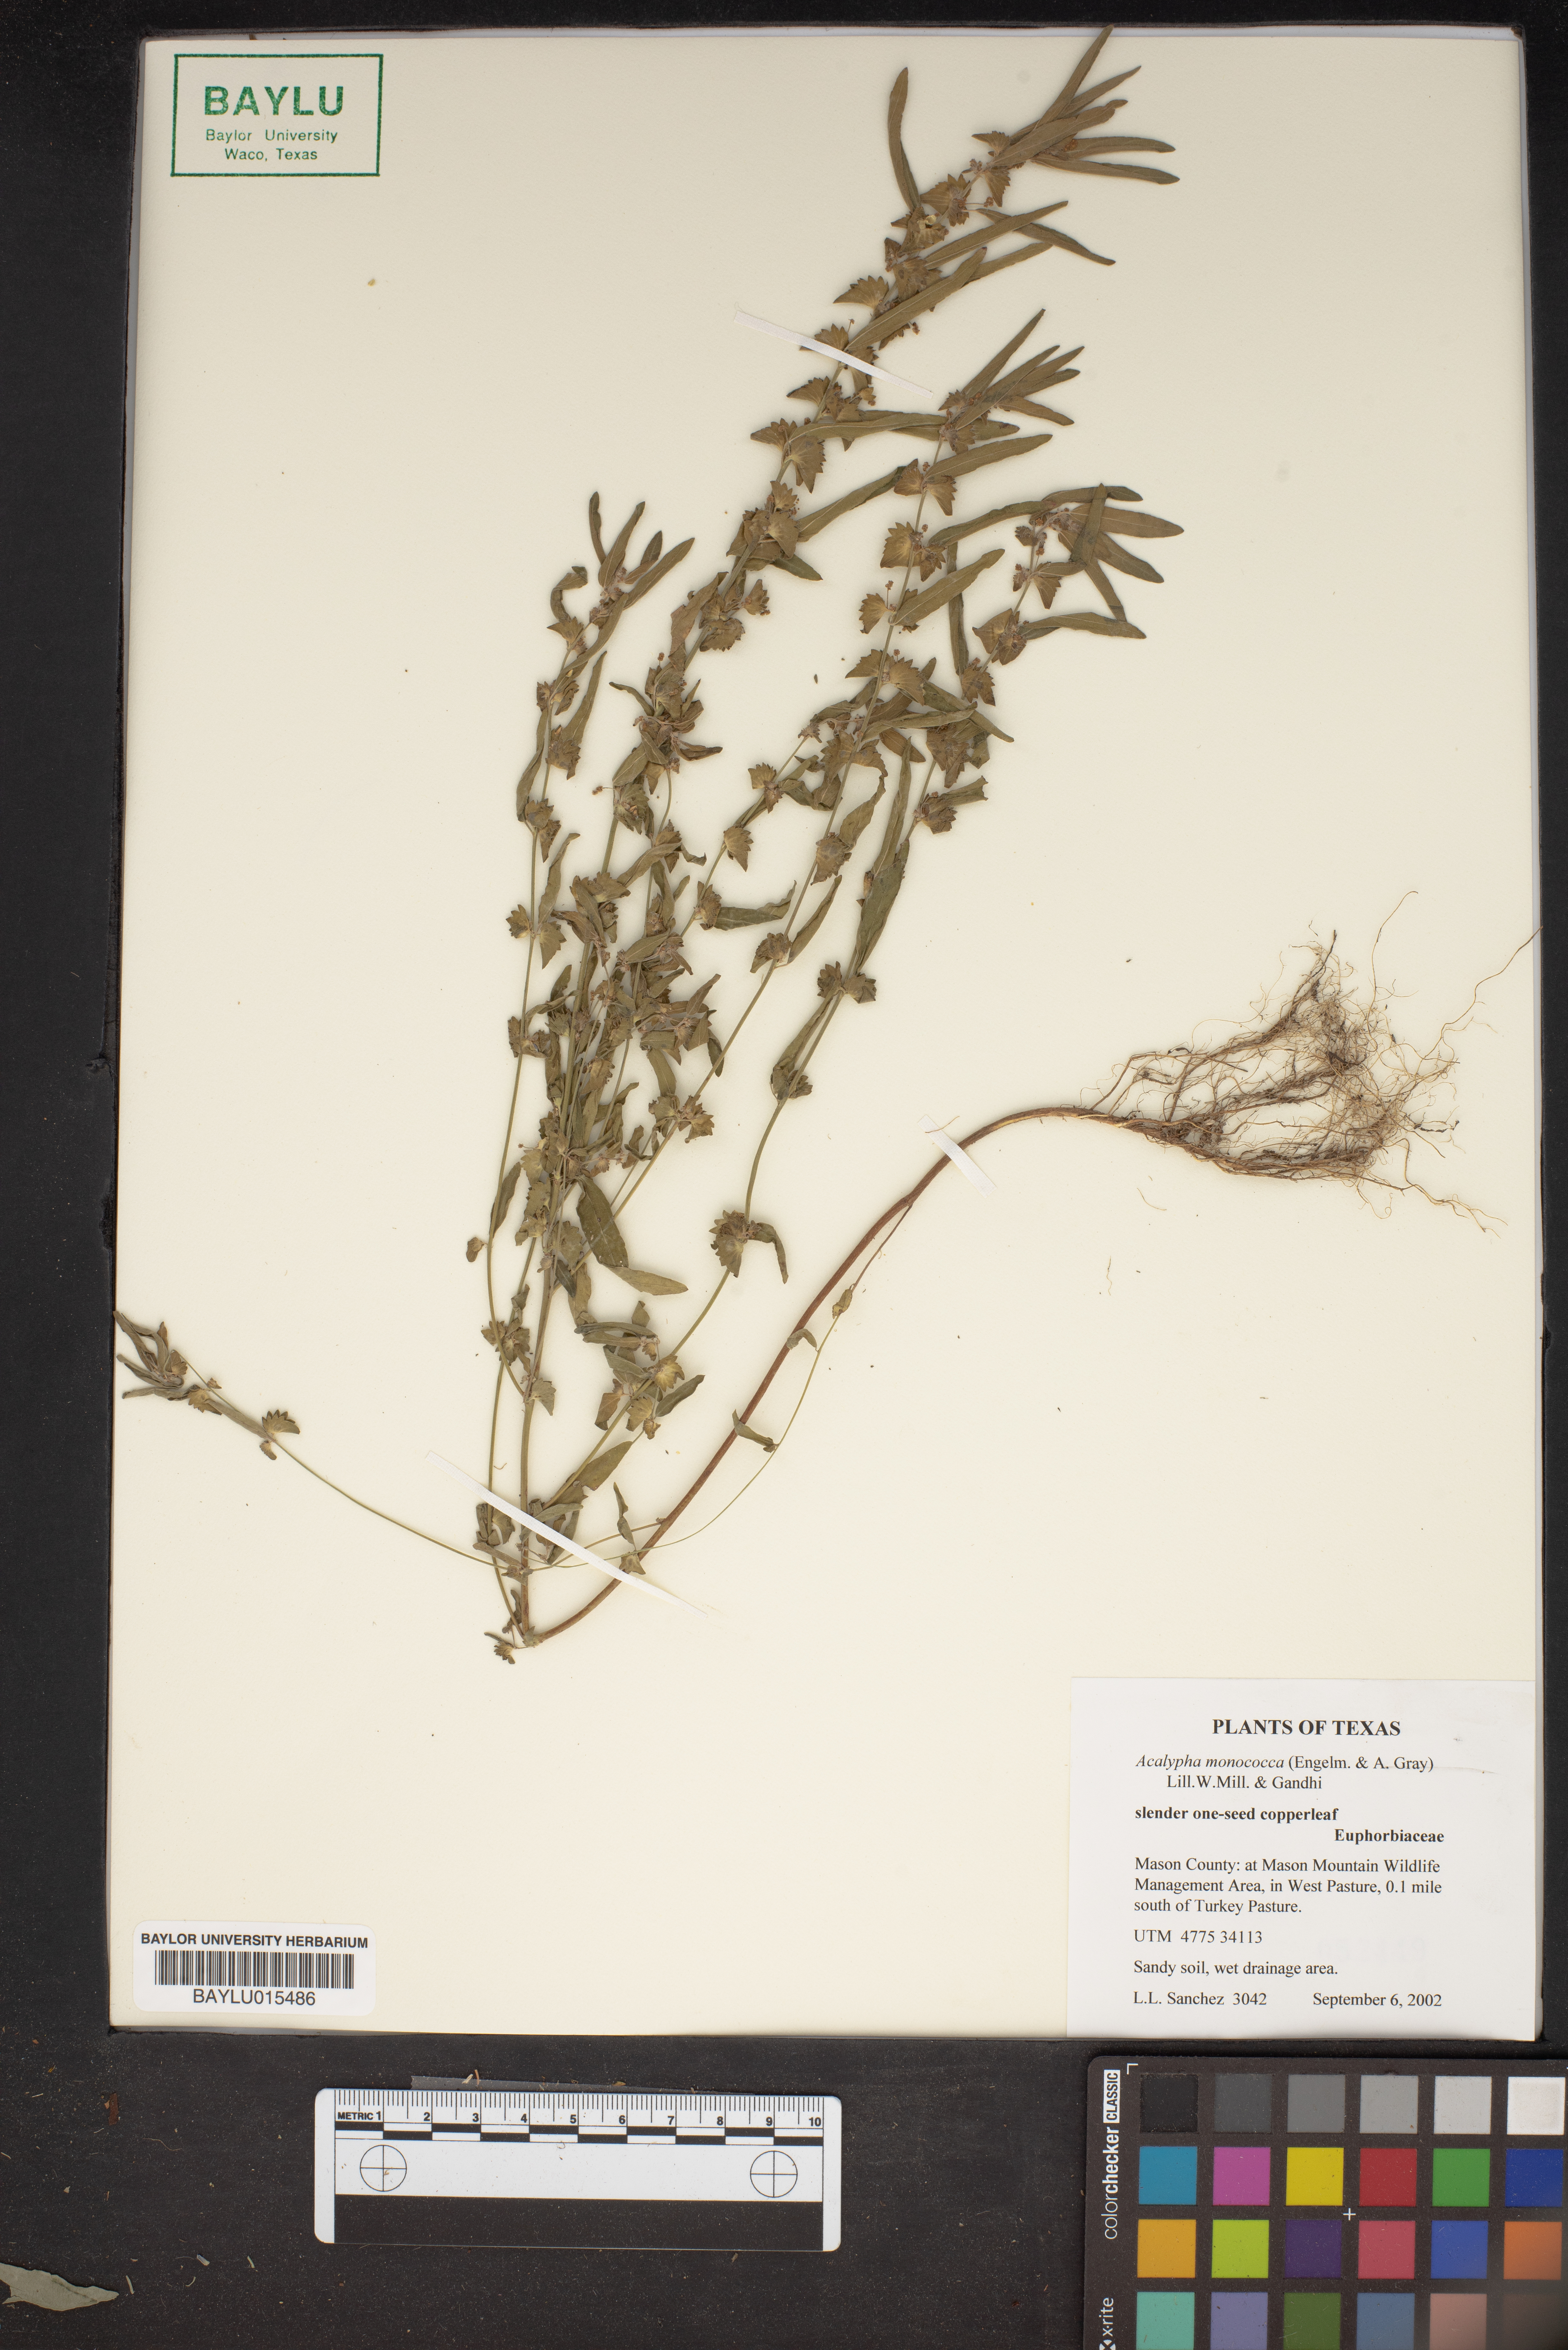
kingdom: Plantae
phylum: Tracheophyta
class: Magnoliopsida
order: Malpighiales
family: Euphorbiaceae
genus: Acalypha
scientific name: Acalypha monococca
